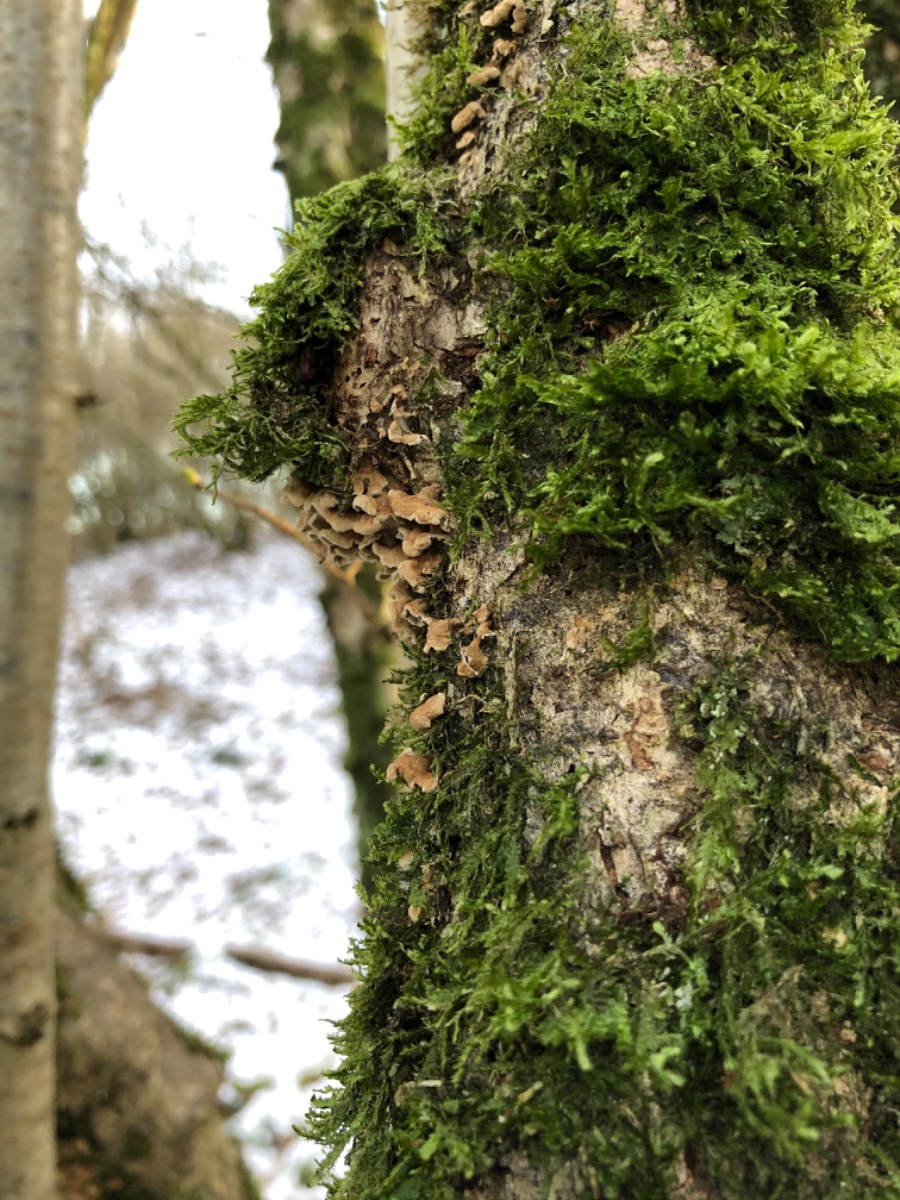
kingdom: Fungi
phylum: Basidiomycota
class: Agaricomycetes
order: Amylocorticiales
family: Amylocorticiaceae
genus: Plicaturopsis
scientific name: Plicaturopsis crispa
